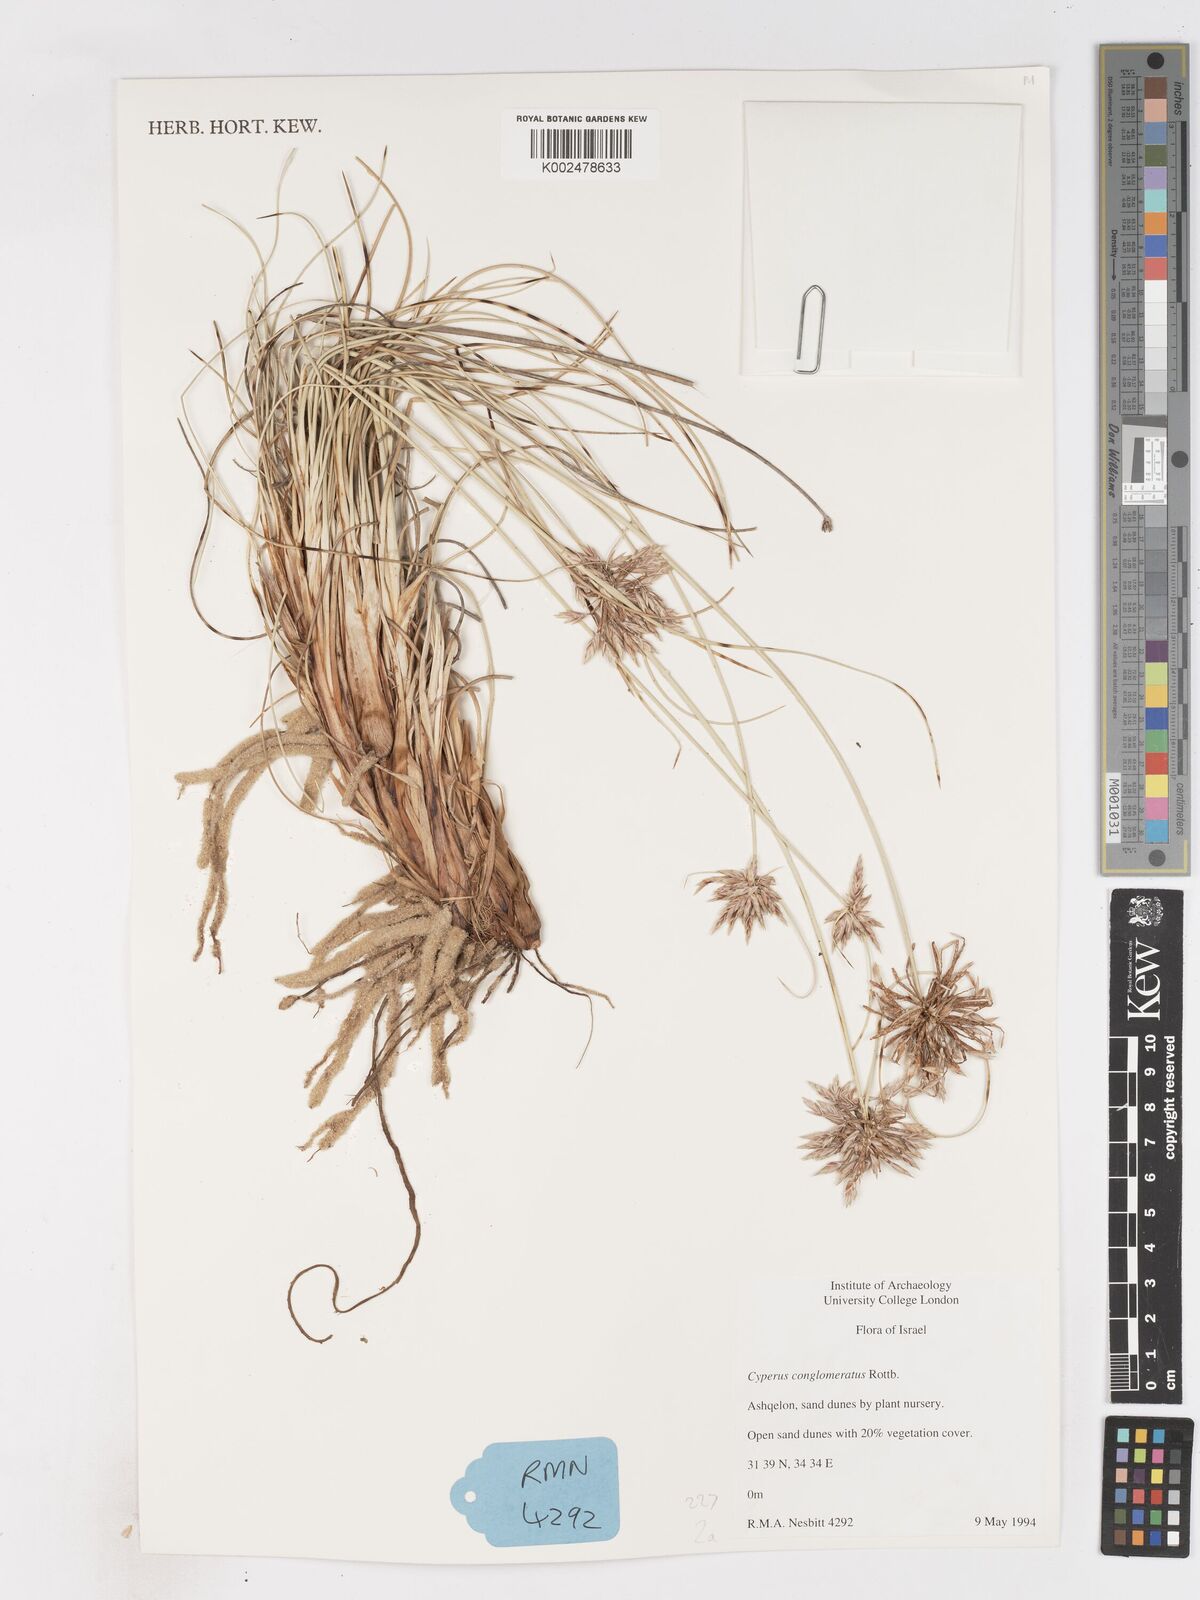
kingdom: Plantae
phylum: Tracheophyta
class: Liliopsida
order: Poales
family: Cyperaceae
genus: Cyperus
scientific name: Cyperus conglomeratus
